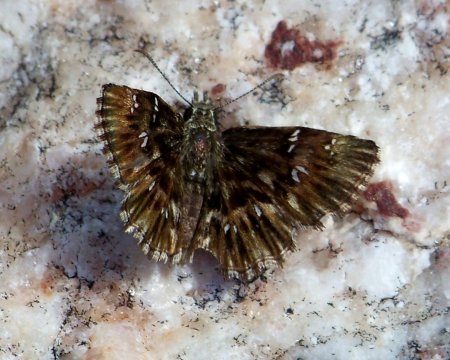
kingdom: Animalia
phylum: Arthropoda
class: Insecta
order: Lepidoptera
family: Hesperiidae
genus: Celotes
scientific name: Celotes nessus
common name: Common Streaky-Skipper
